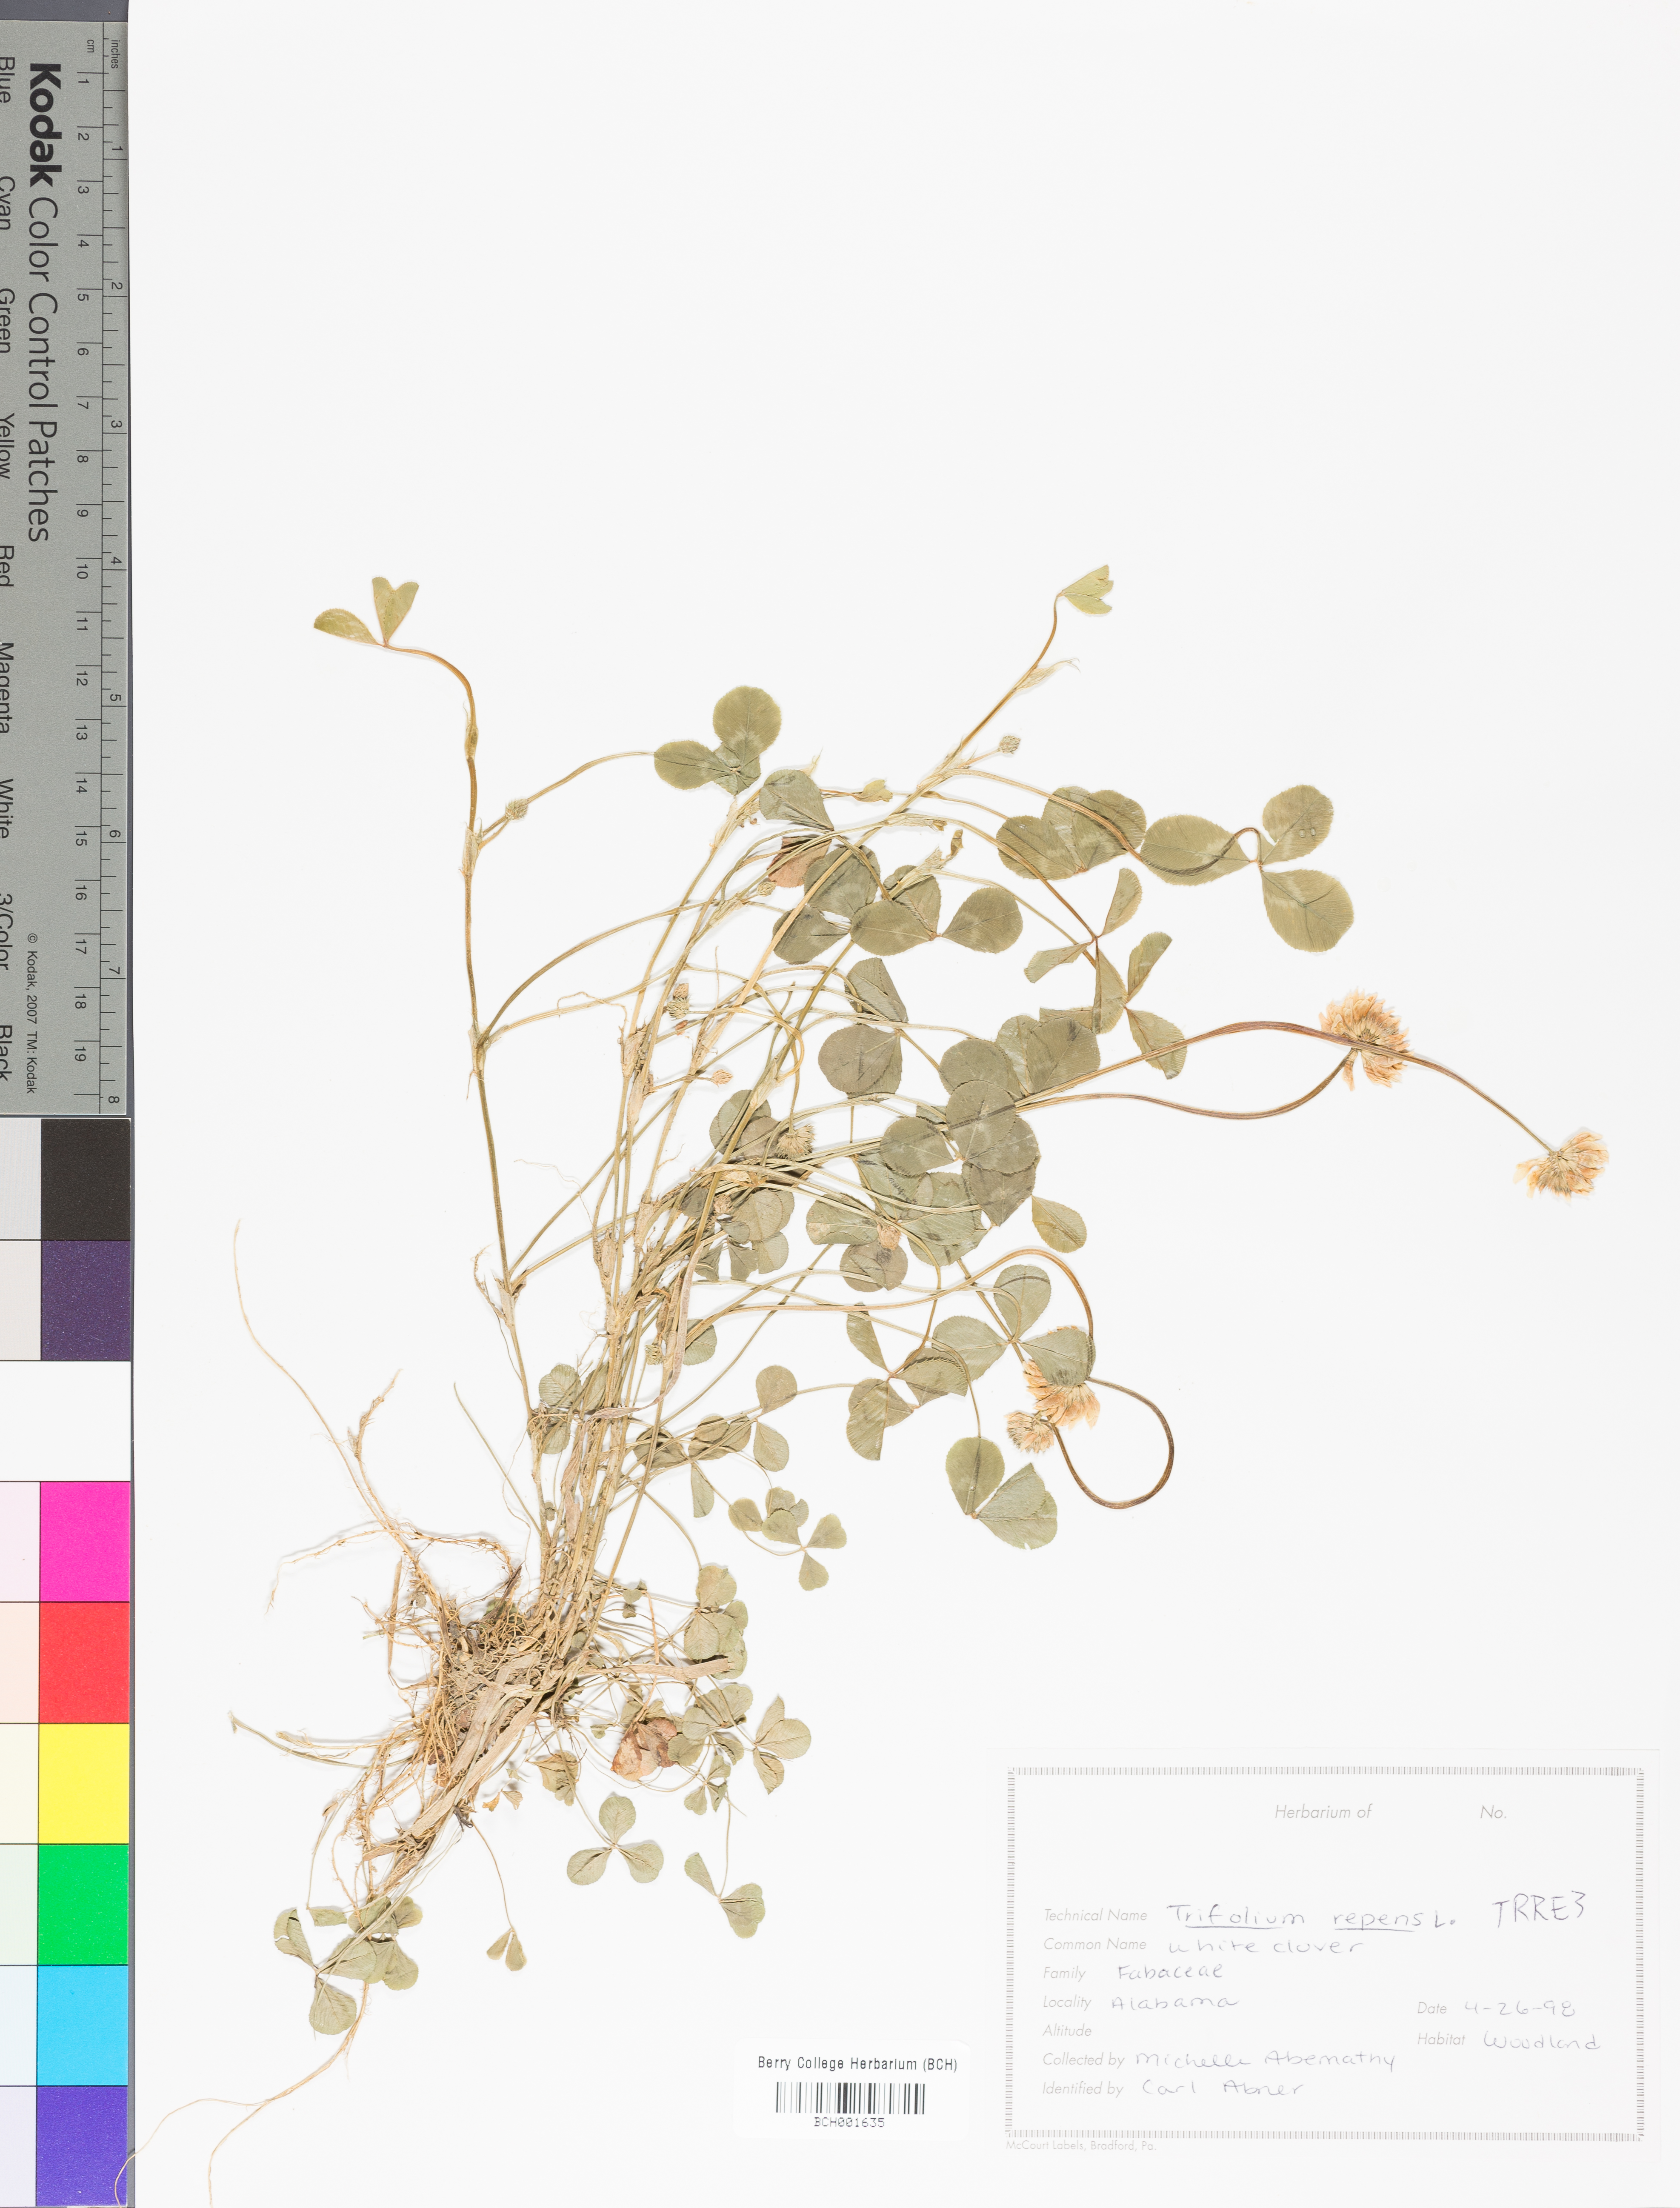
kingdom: Plantae
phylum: Tracheophyta
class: Magnoliopsida
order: Fabales
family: Fabaceae
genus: Trifolium
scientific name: Trifolium repens
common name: White clover
